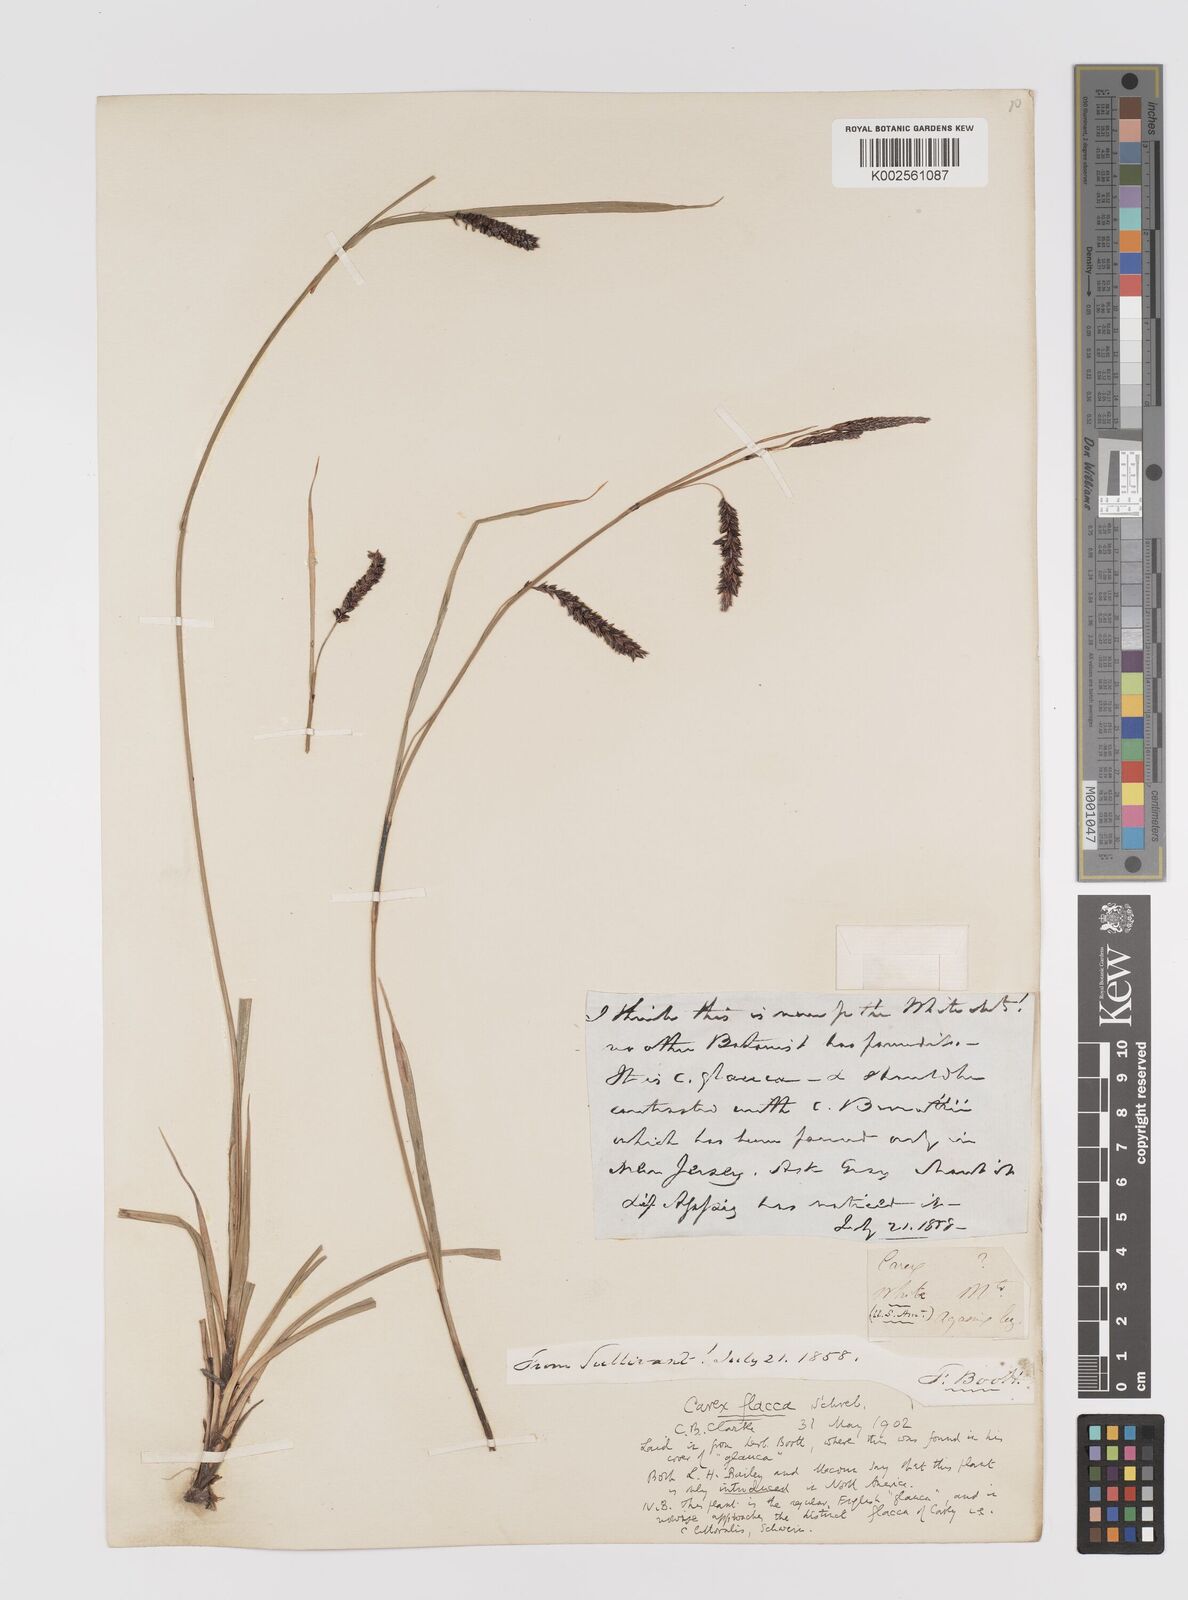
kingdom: Plantae
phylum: Tracheophyta
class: Liliopsida
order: Poales
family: Cyperaceae
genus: Carex
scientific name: Carex flacca
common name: Glaucous sedge
